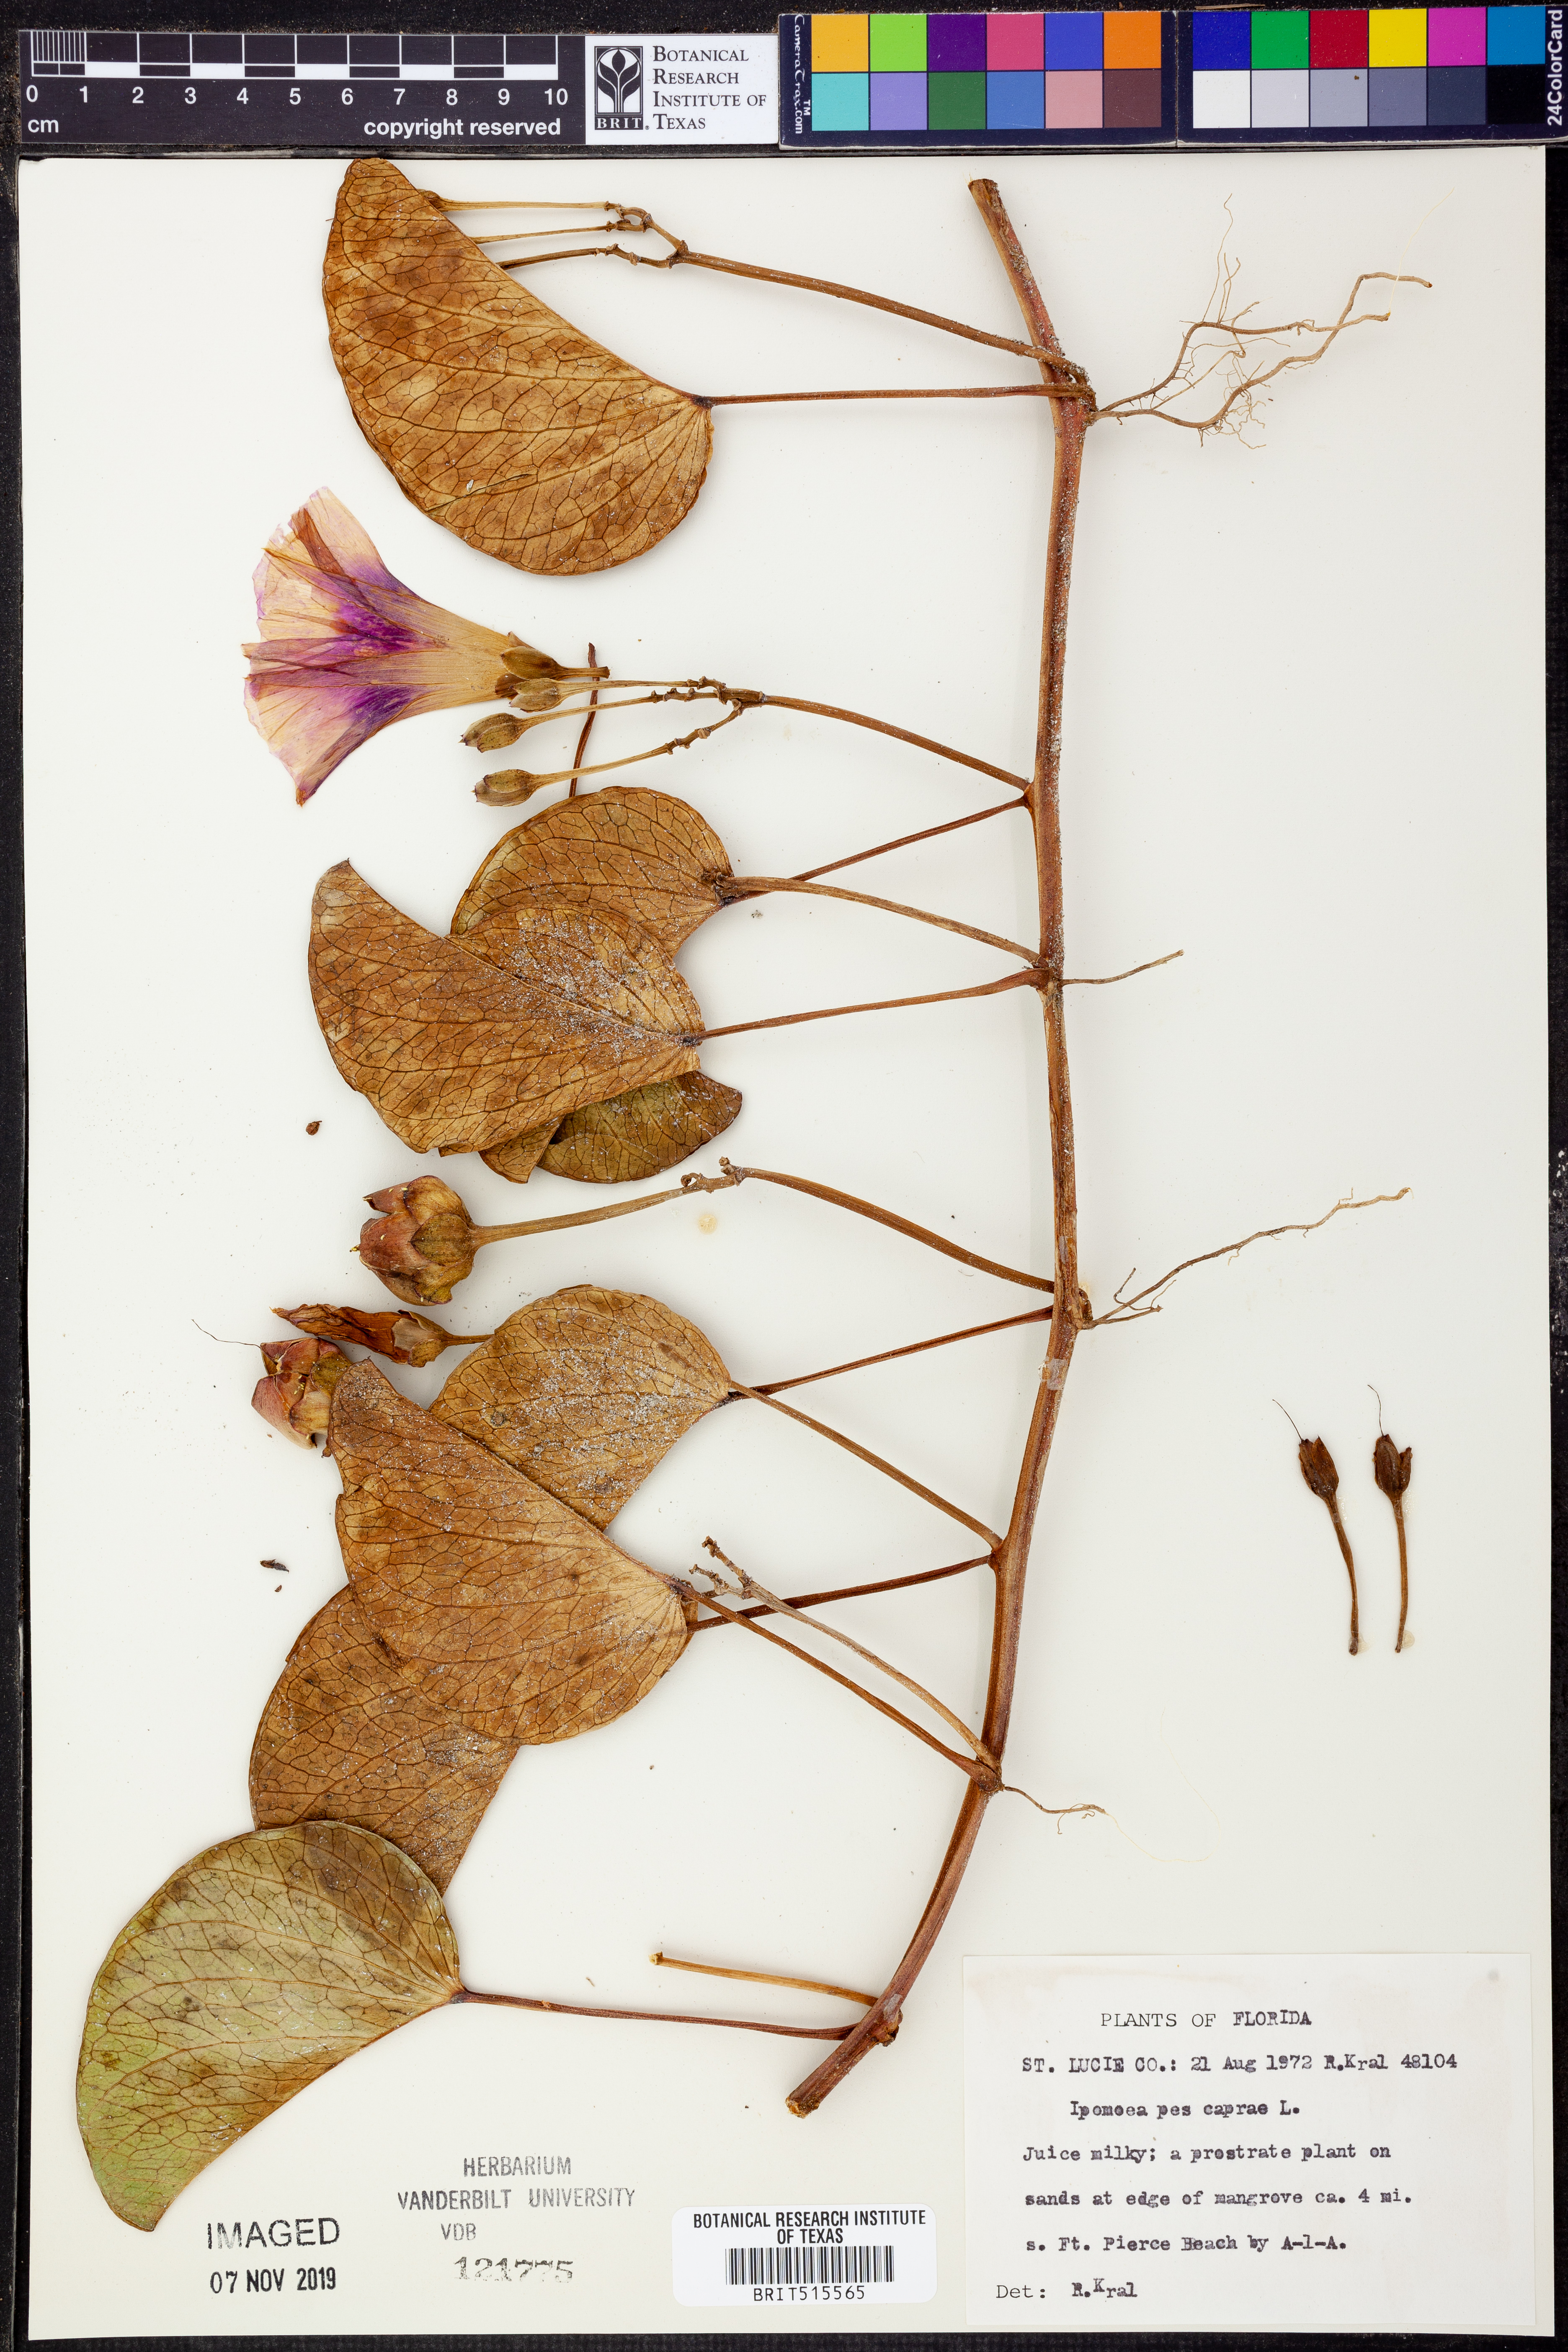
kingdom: Plantae
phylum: Tracheophyta
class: Magnoliopsida
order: Solanales
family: Convolvulaceae
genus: Ipomoea
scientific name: Ipomoea pes-caprae
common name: Beach morning glory
